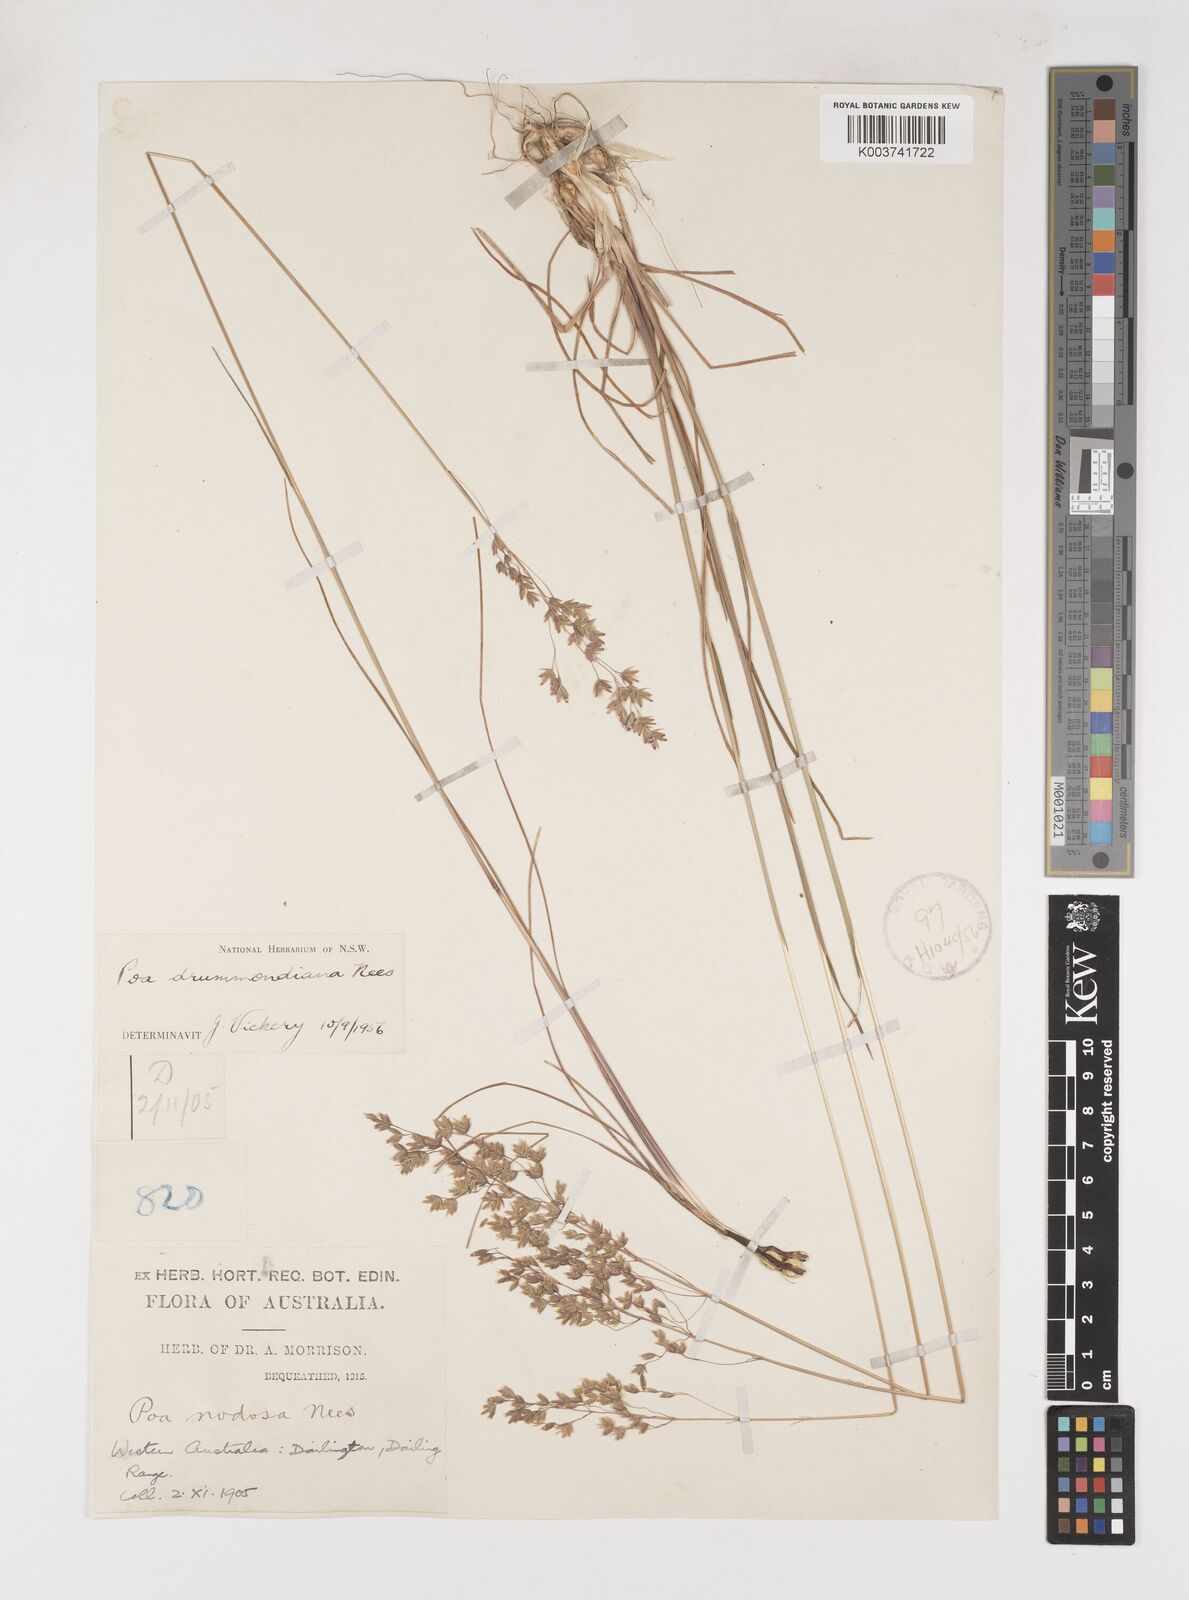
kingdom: Plantae
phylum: Tracheophyta
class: Liliopsida
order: Poales
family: Poaceae
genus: Poa
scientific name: Poa drummondiana
